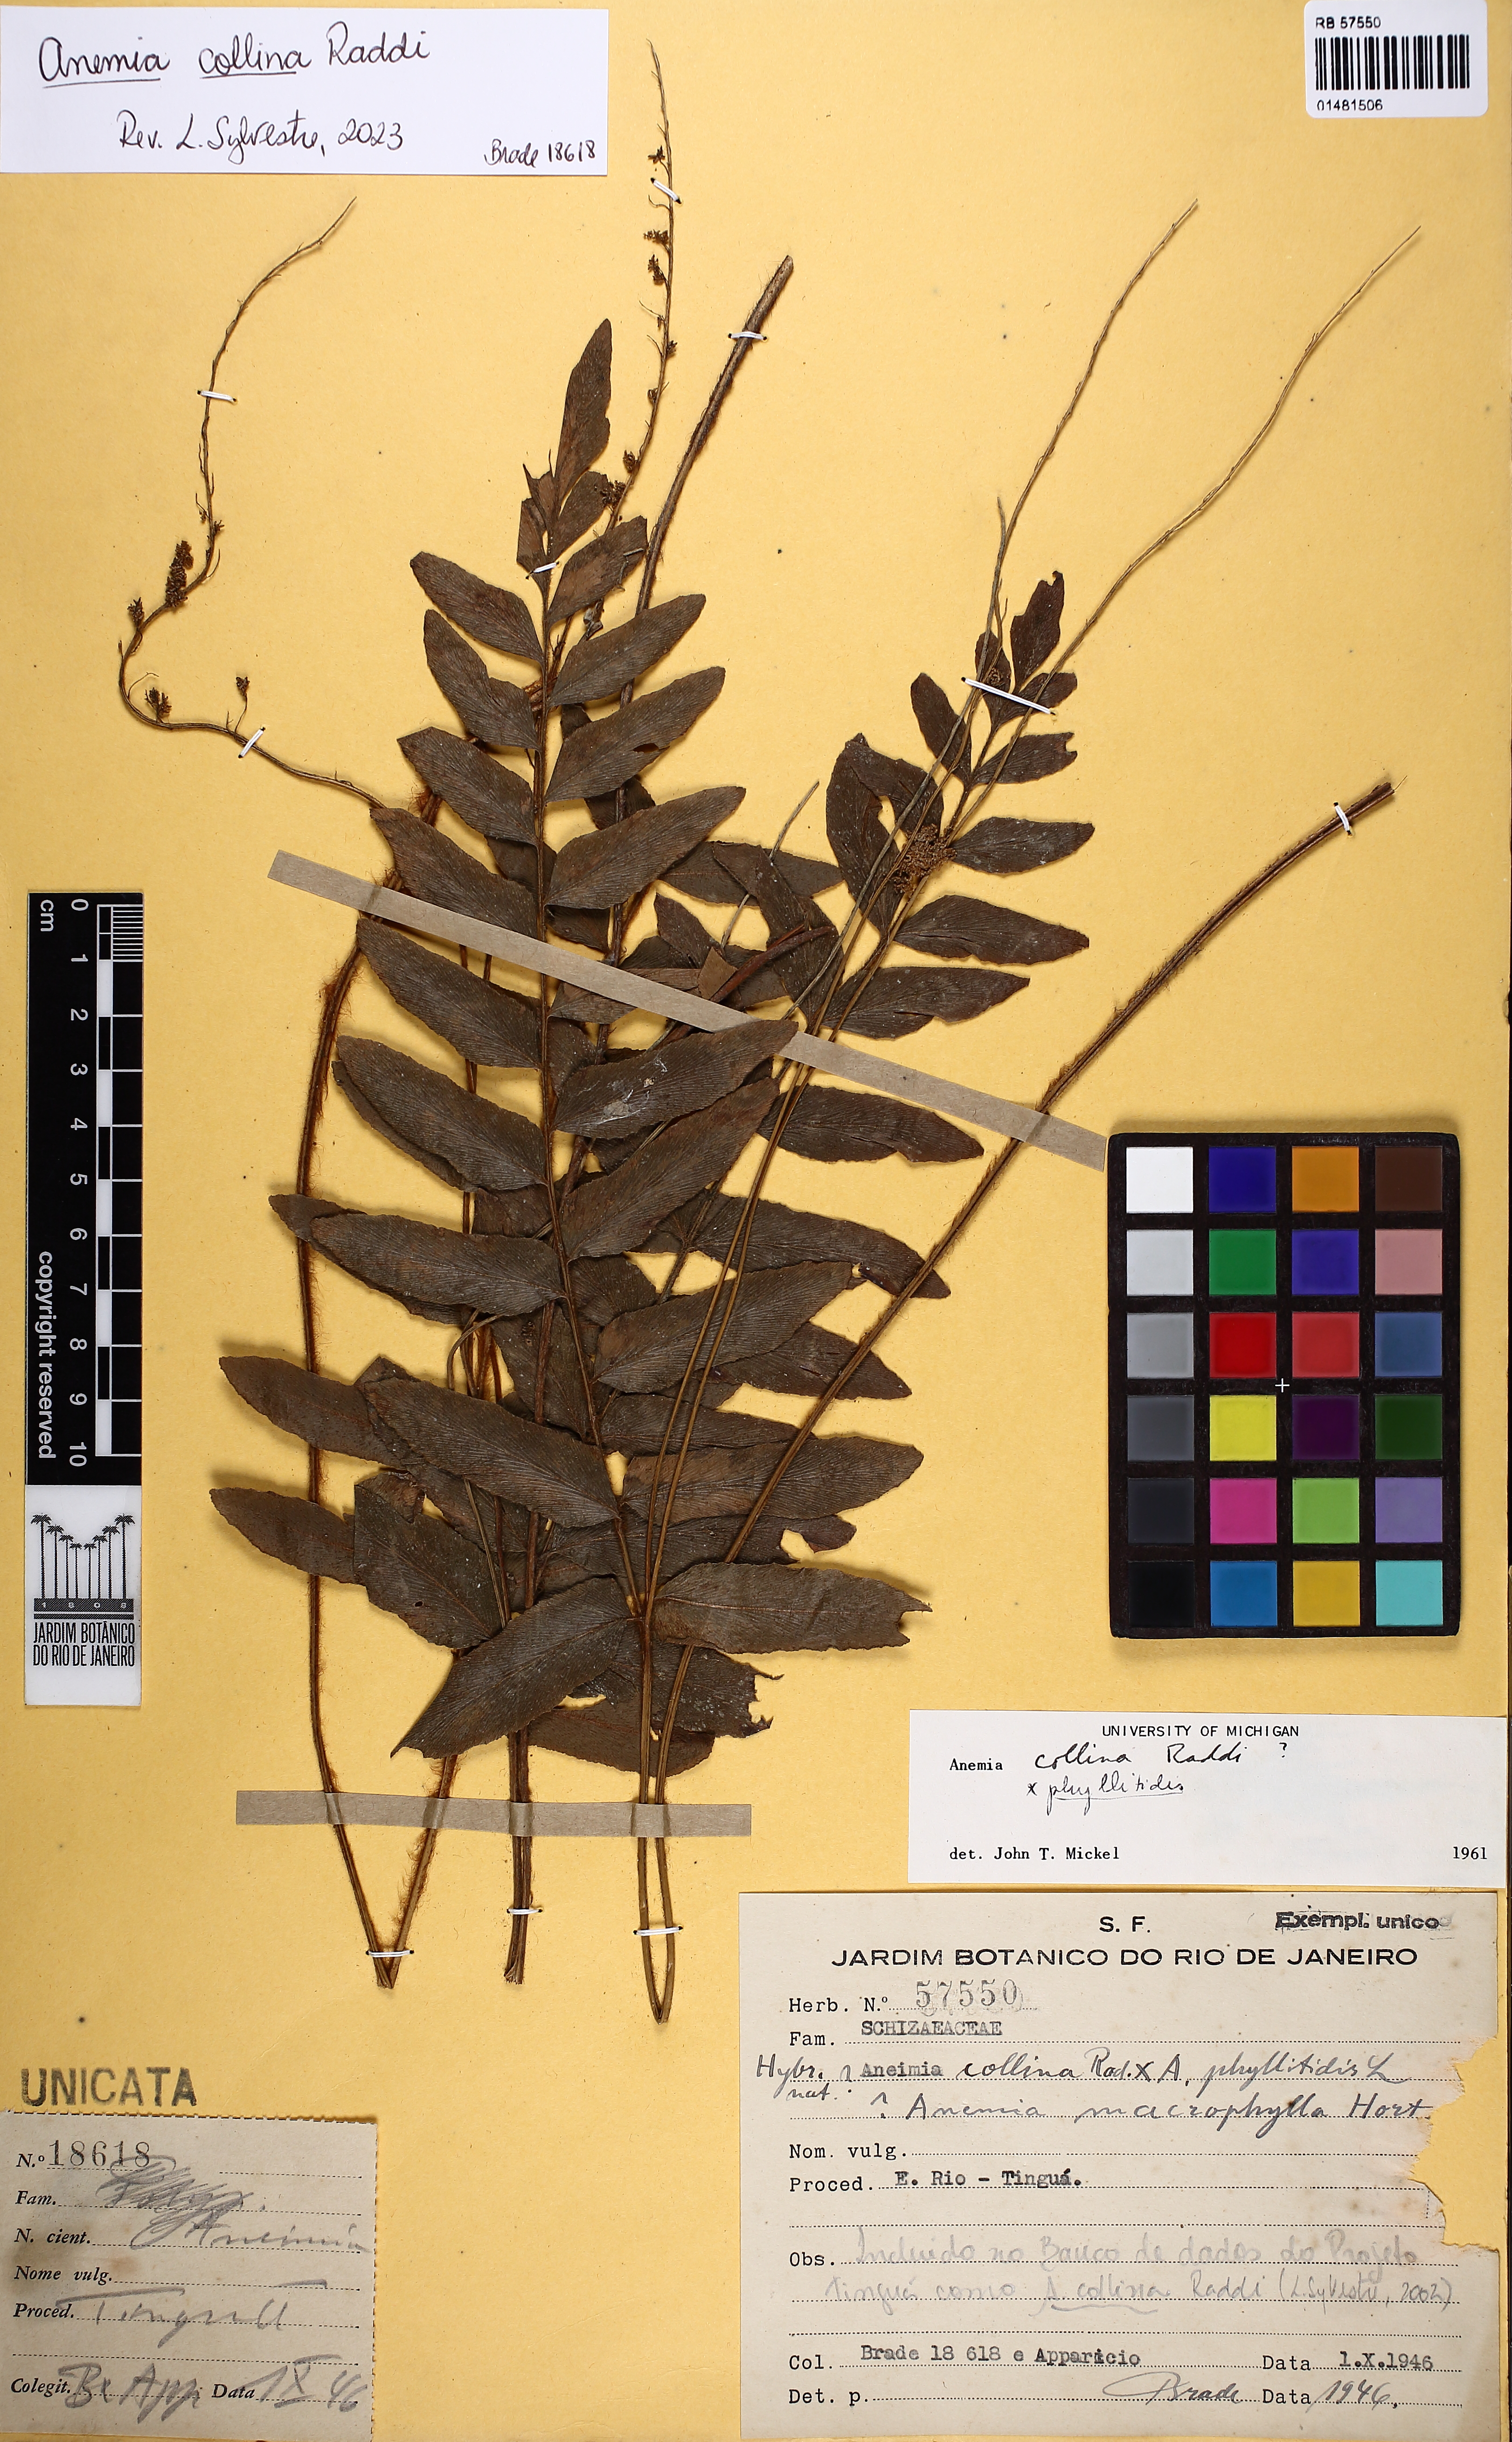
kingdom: Plantae
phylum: Tracheophyta
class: Polypodiopsida
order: Schizaeales
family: Anemiaceae
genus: Anemia
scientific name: Anemia collina
